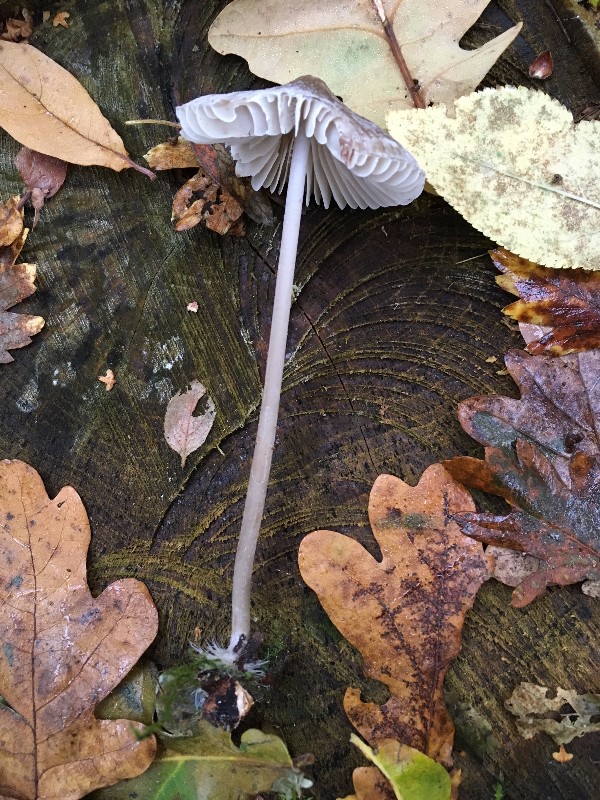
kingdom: Fungi
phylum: Basidiomycota
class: Agaricomycetes
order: Agaricales
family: Mycenaceae
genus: Mycena
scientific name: Mycena galericulata
